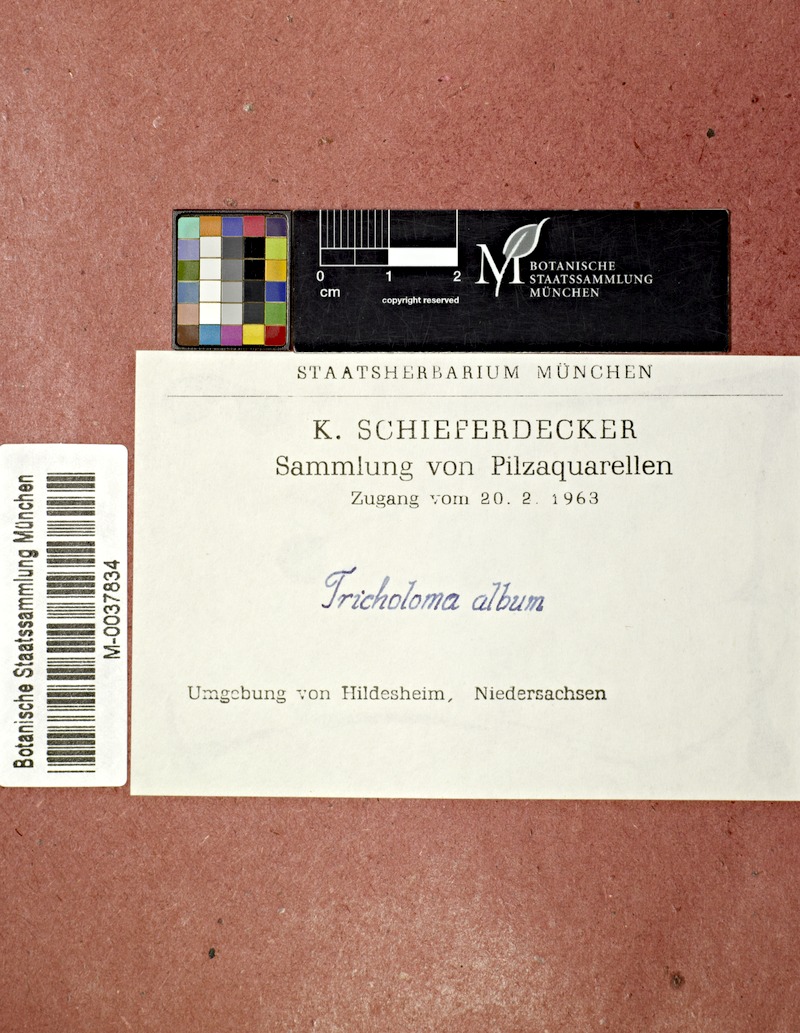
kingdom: Fungi
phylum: Basidiomycota
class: Agaricomycetes
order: Agaricales
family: Tricholomataceae
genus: Tricholoma
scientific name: Tricholoma album
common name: White knight
